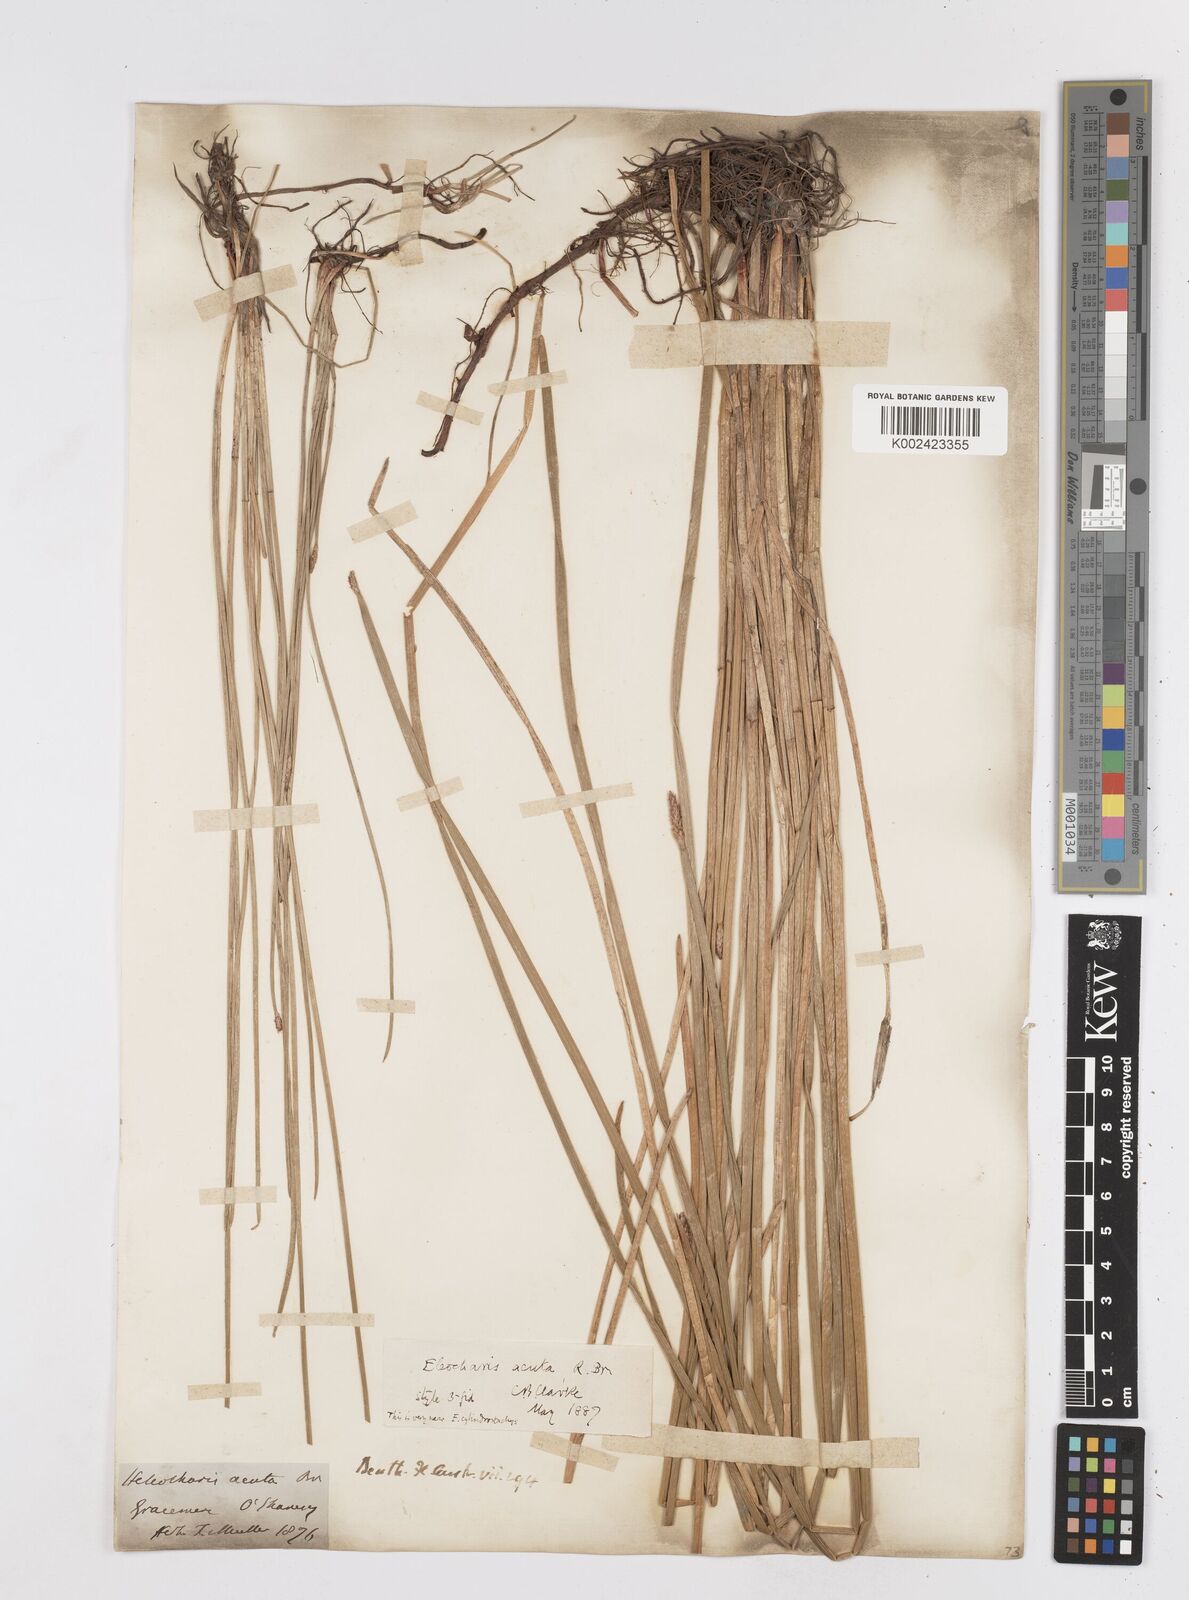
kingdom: Plantae
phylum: Tracheophyta
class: Liliopsida
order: Poales
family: Cyperaceae
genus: Eleocharis
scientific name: Eleocharis acuta
